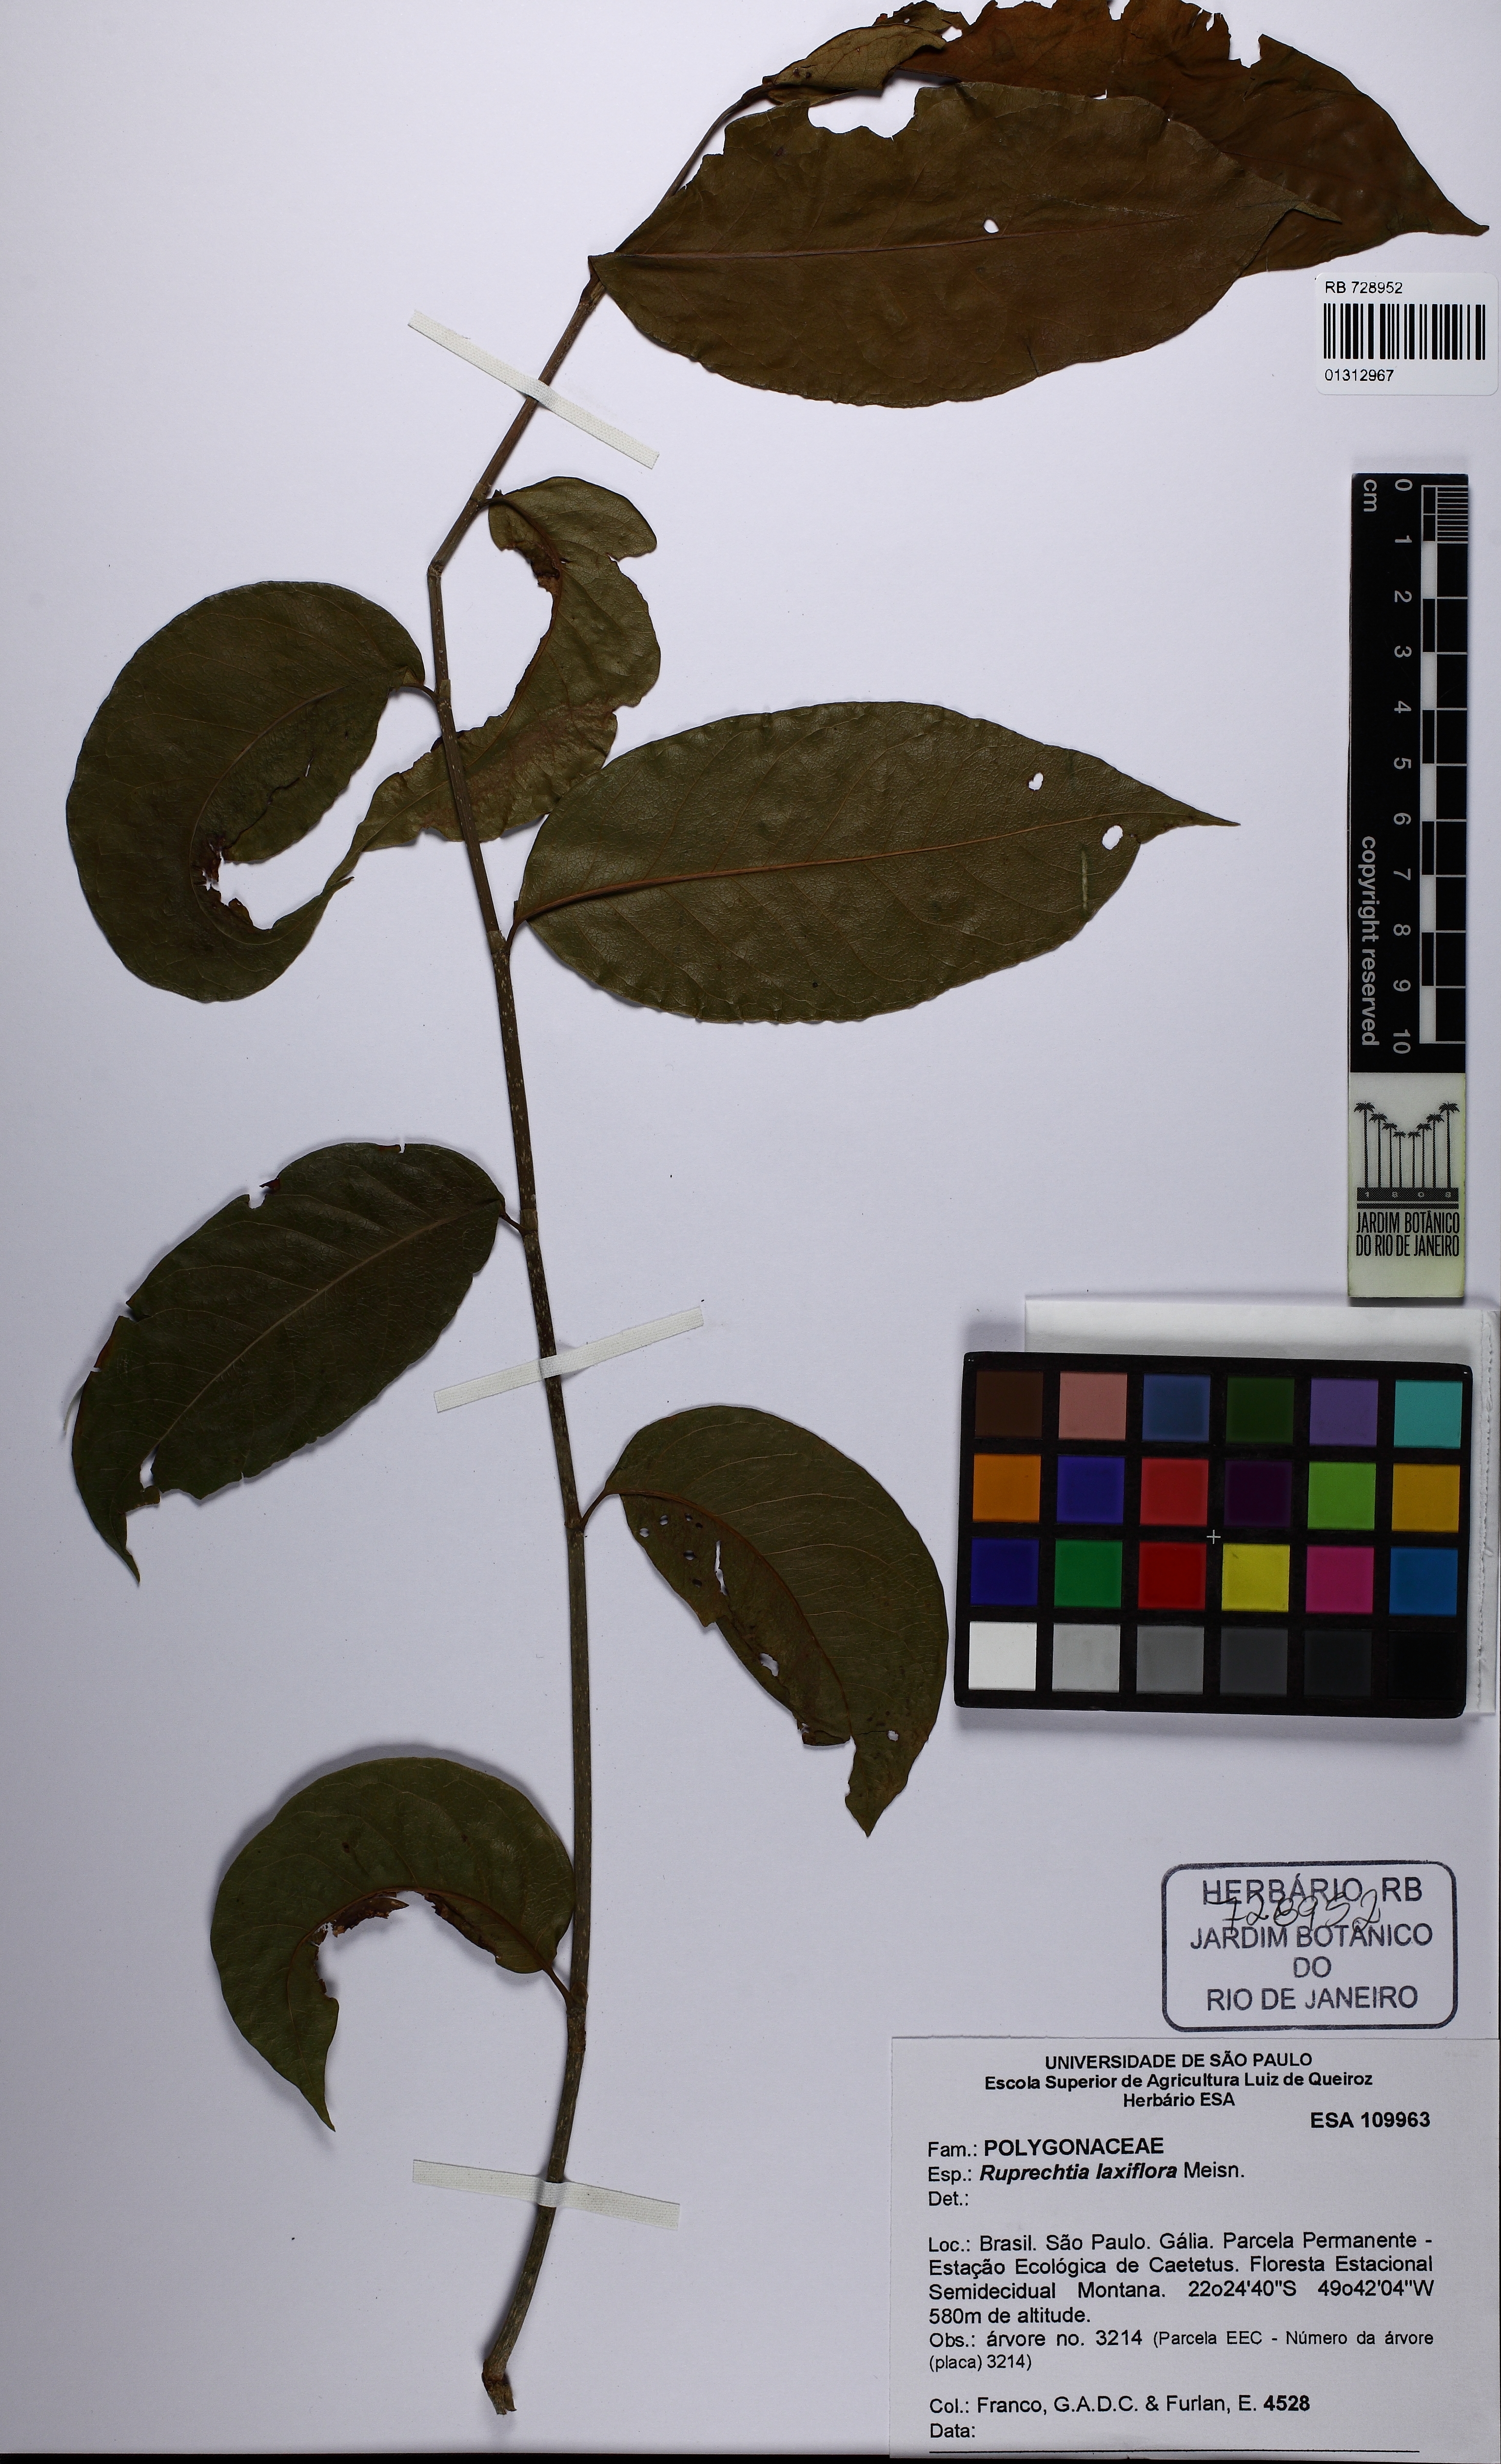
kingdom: Plantae
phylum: Tracheophyta
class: Magnoliopsida
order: Caryophyllales
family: Polygonaceae
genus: Ruprechtia
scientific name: Ruprechtia laxiflora
